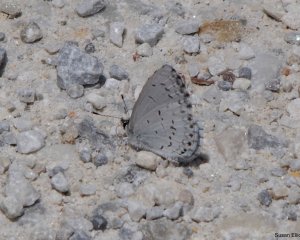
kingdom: Animalia
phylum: Arthropoda
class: Insecta
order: Lepidoptera
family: Lycaenidae
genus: Celastrina
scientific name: Celastrina
